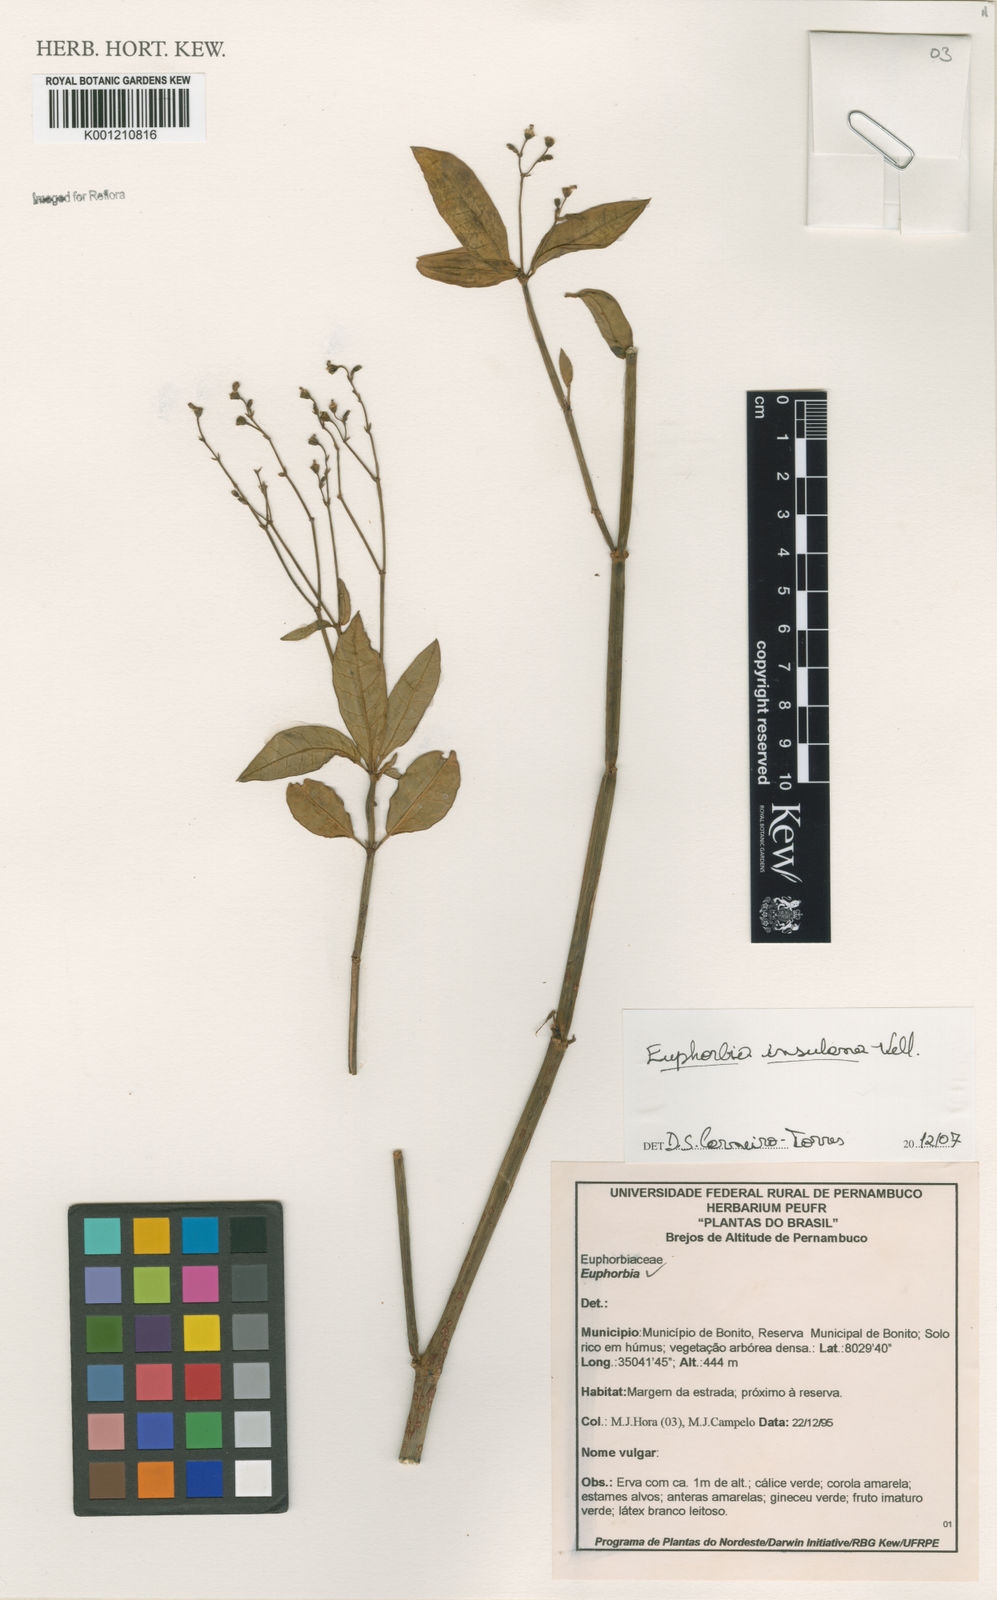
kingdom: Plantae
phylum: Tracheophyta
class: Magnoliopsida
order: Malpighiales
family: Euphorbiaceae
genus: Euphorbia
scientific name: Euphorbia insulana
